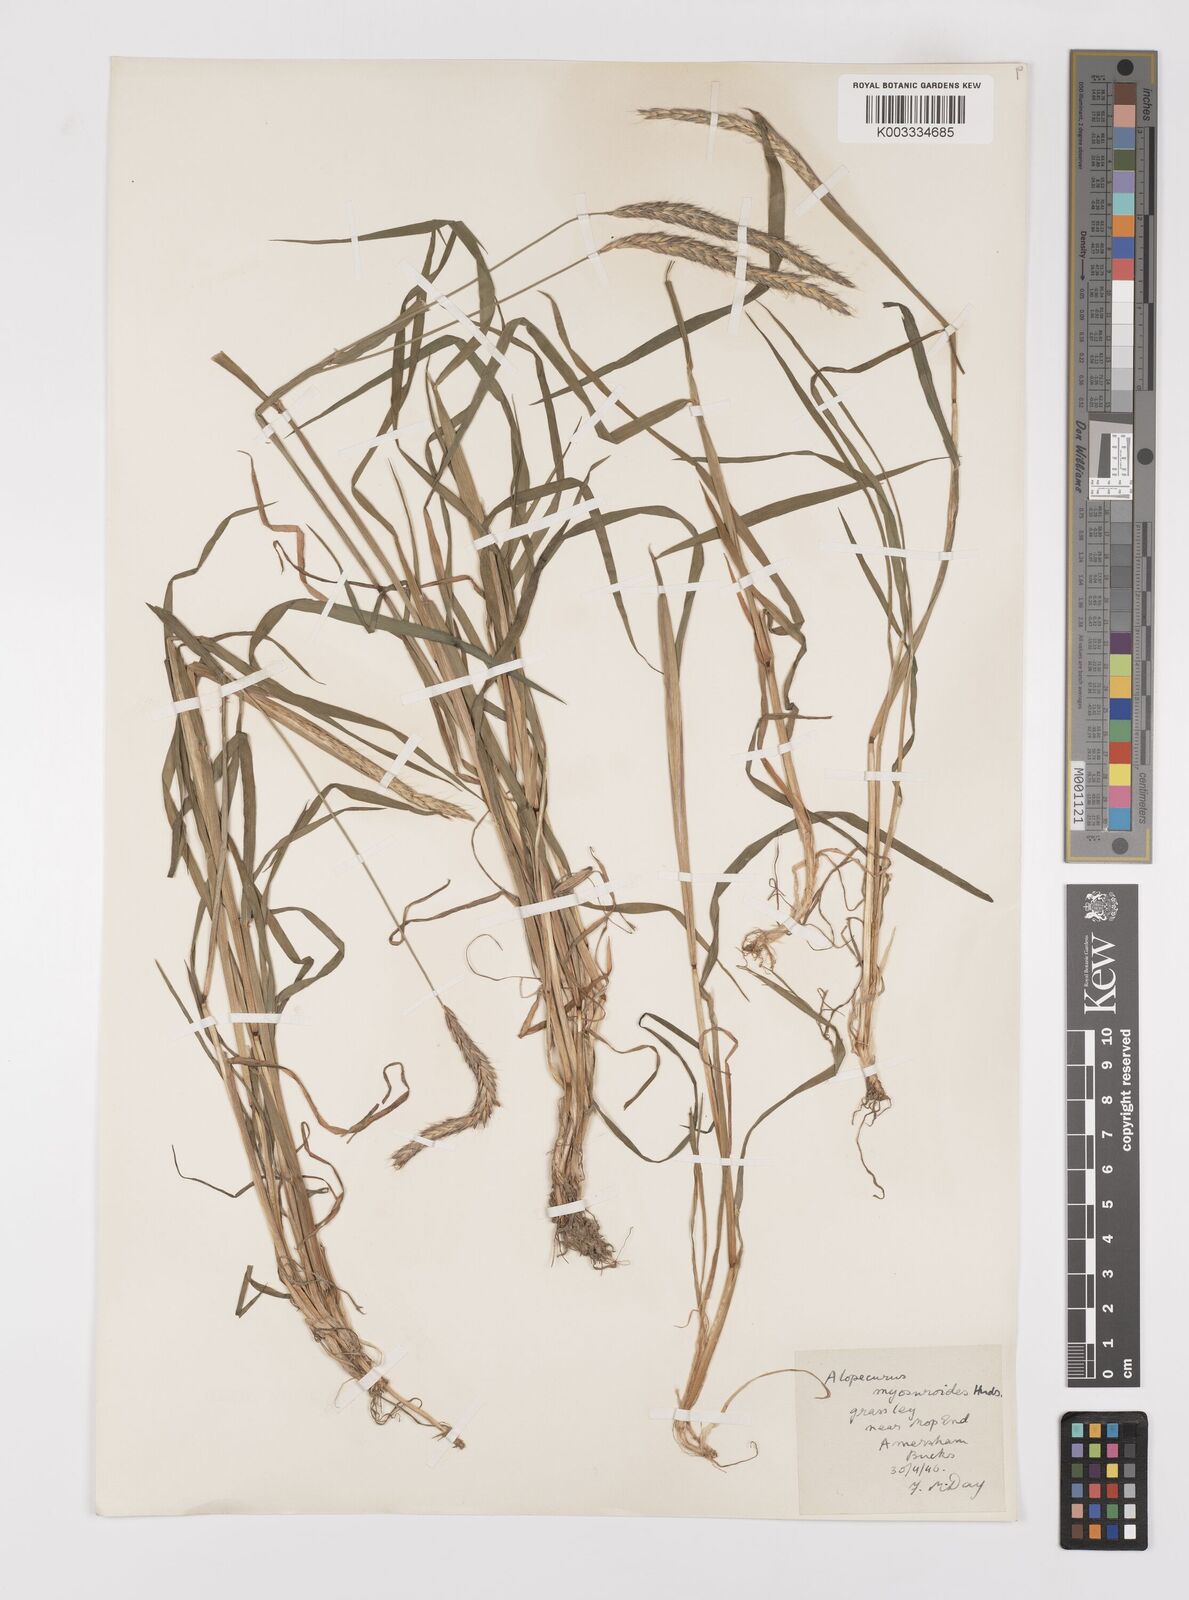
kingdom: Plantae
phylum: Tracheophyta
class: Liliopsida
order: Poales
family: Poaceae
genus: Alopecurus
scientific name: Alopecurus myosuroides
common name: Black-grass
